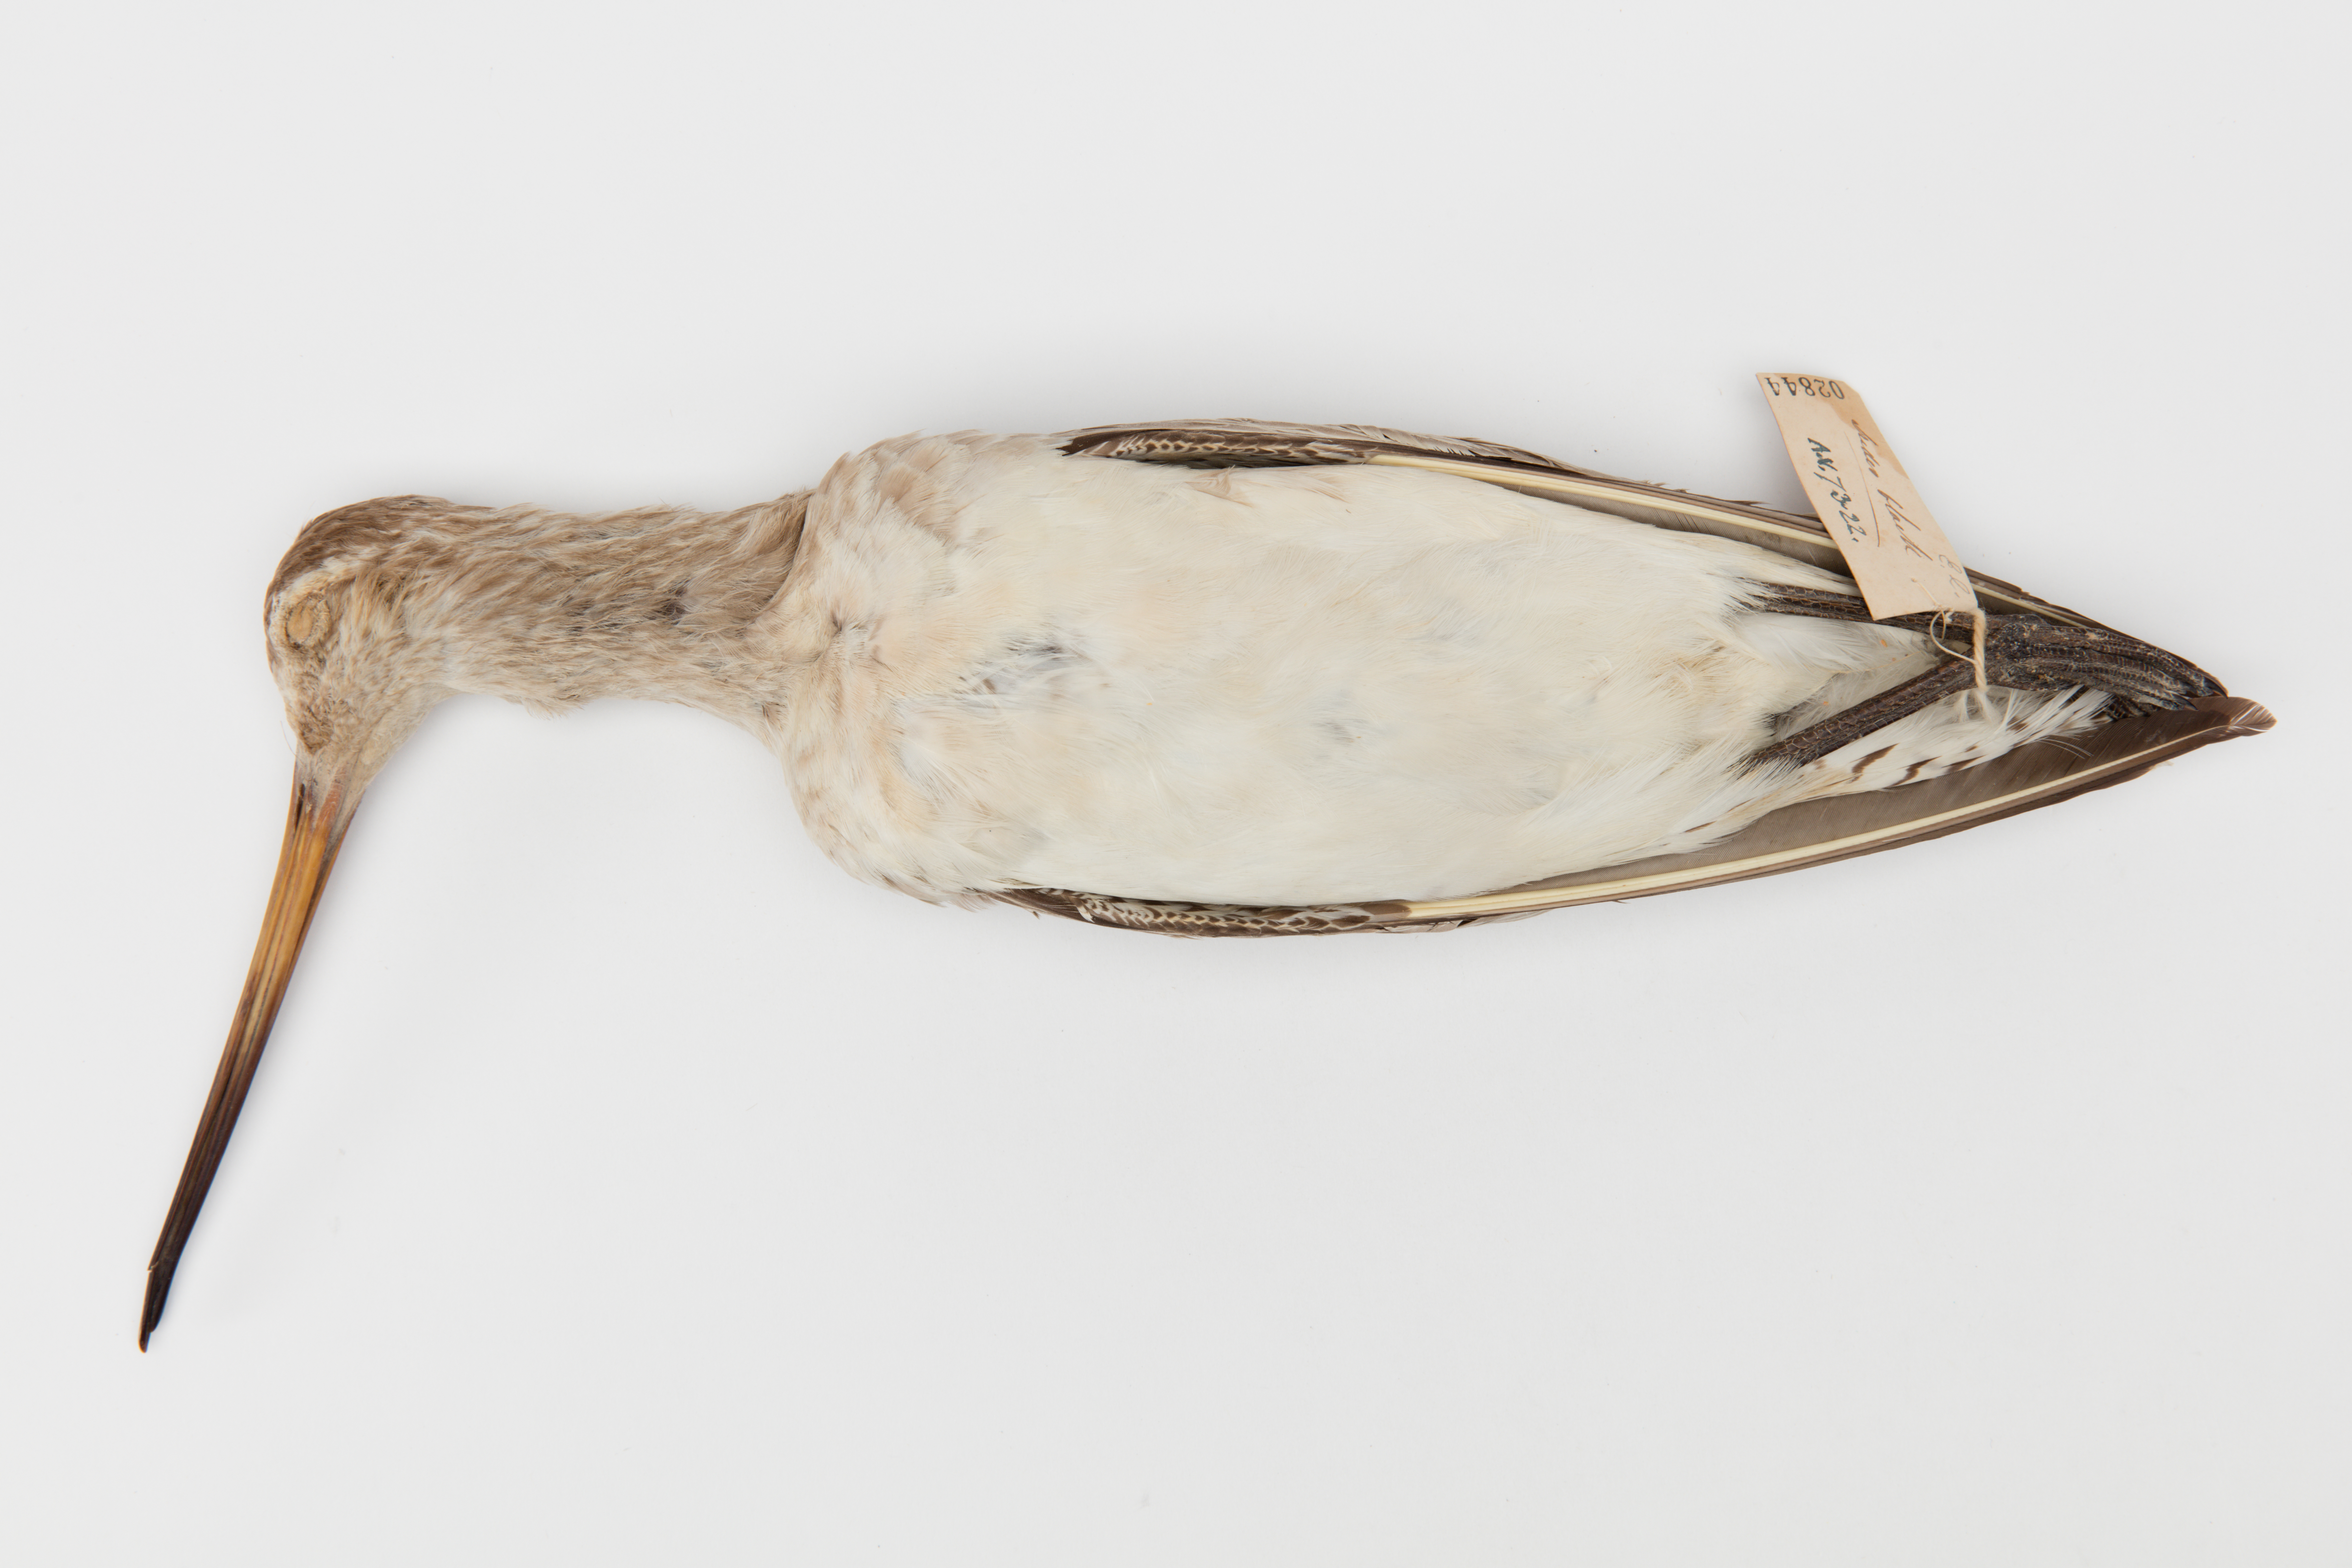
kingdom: Animalia
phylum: Chordata
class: Aves
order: Charadriiformes
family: Scolopacidae
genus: Limosa
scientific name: Limosa lapponica
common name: Bar-tailed godwit
